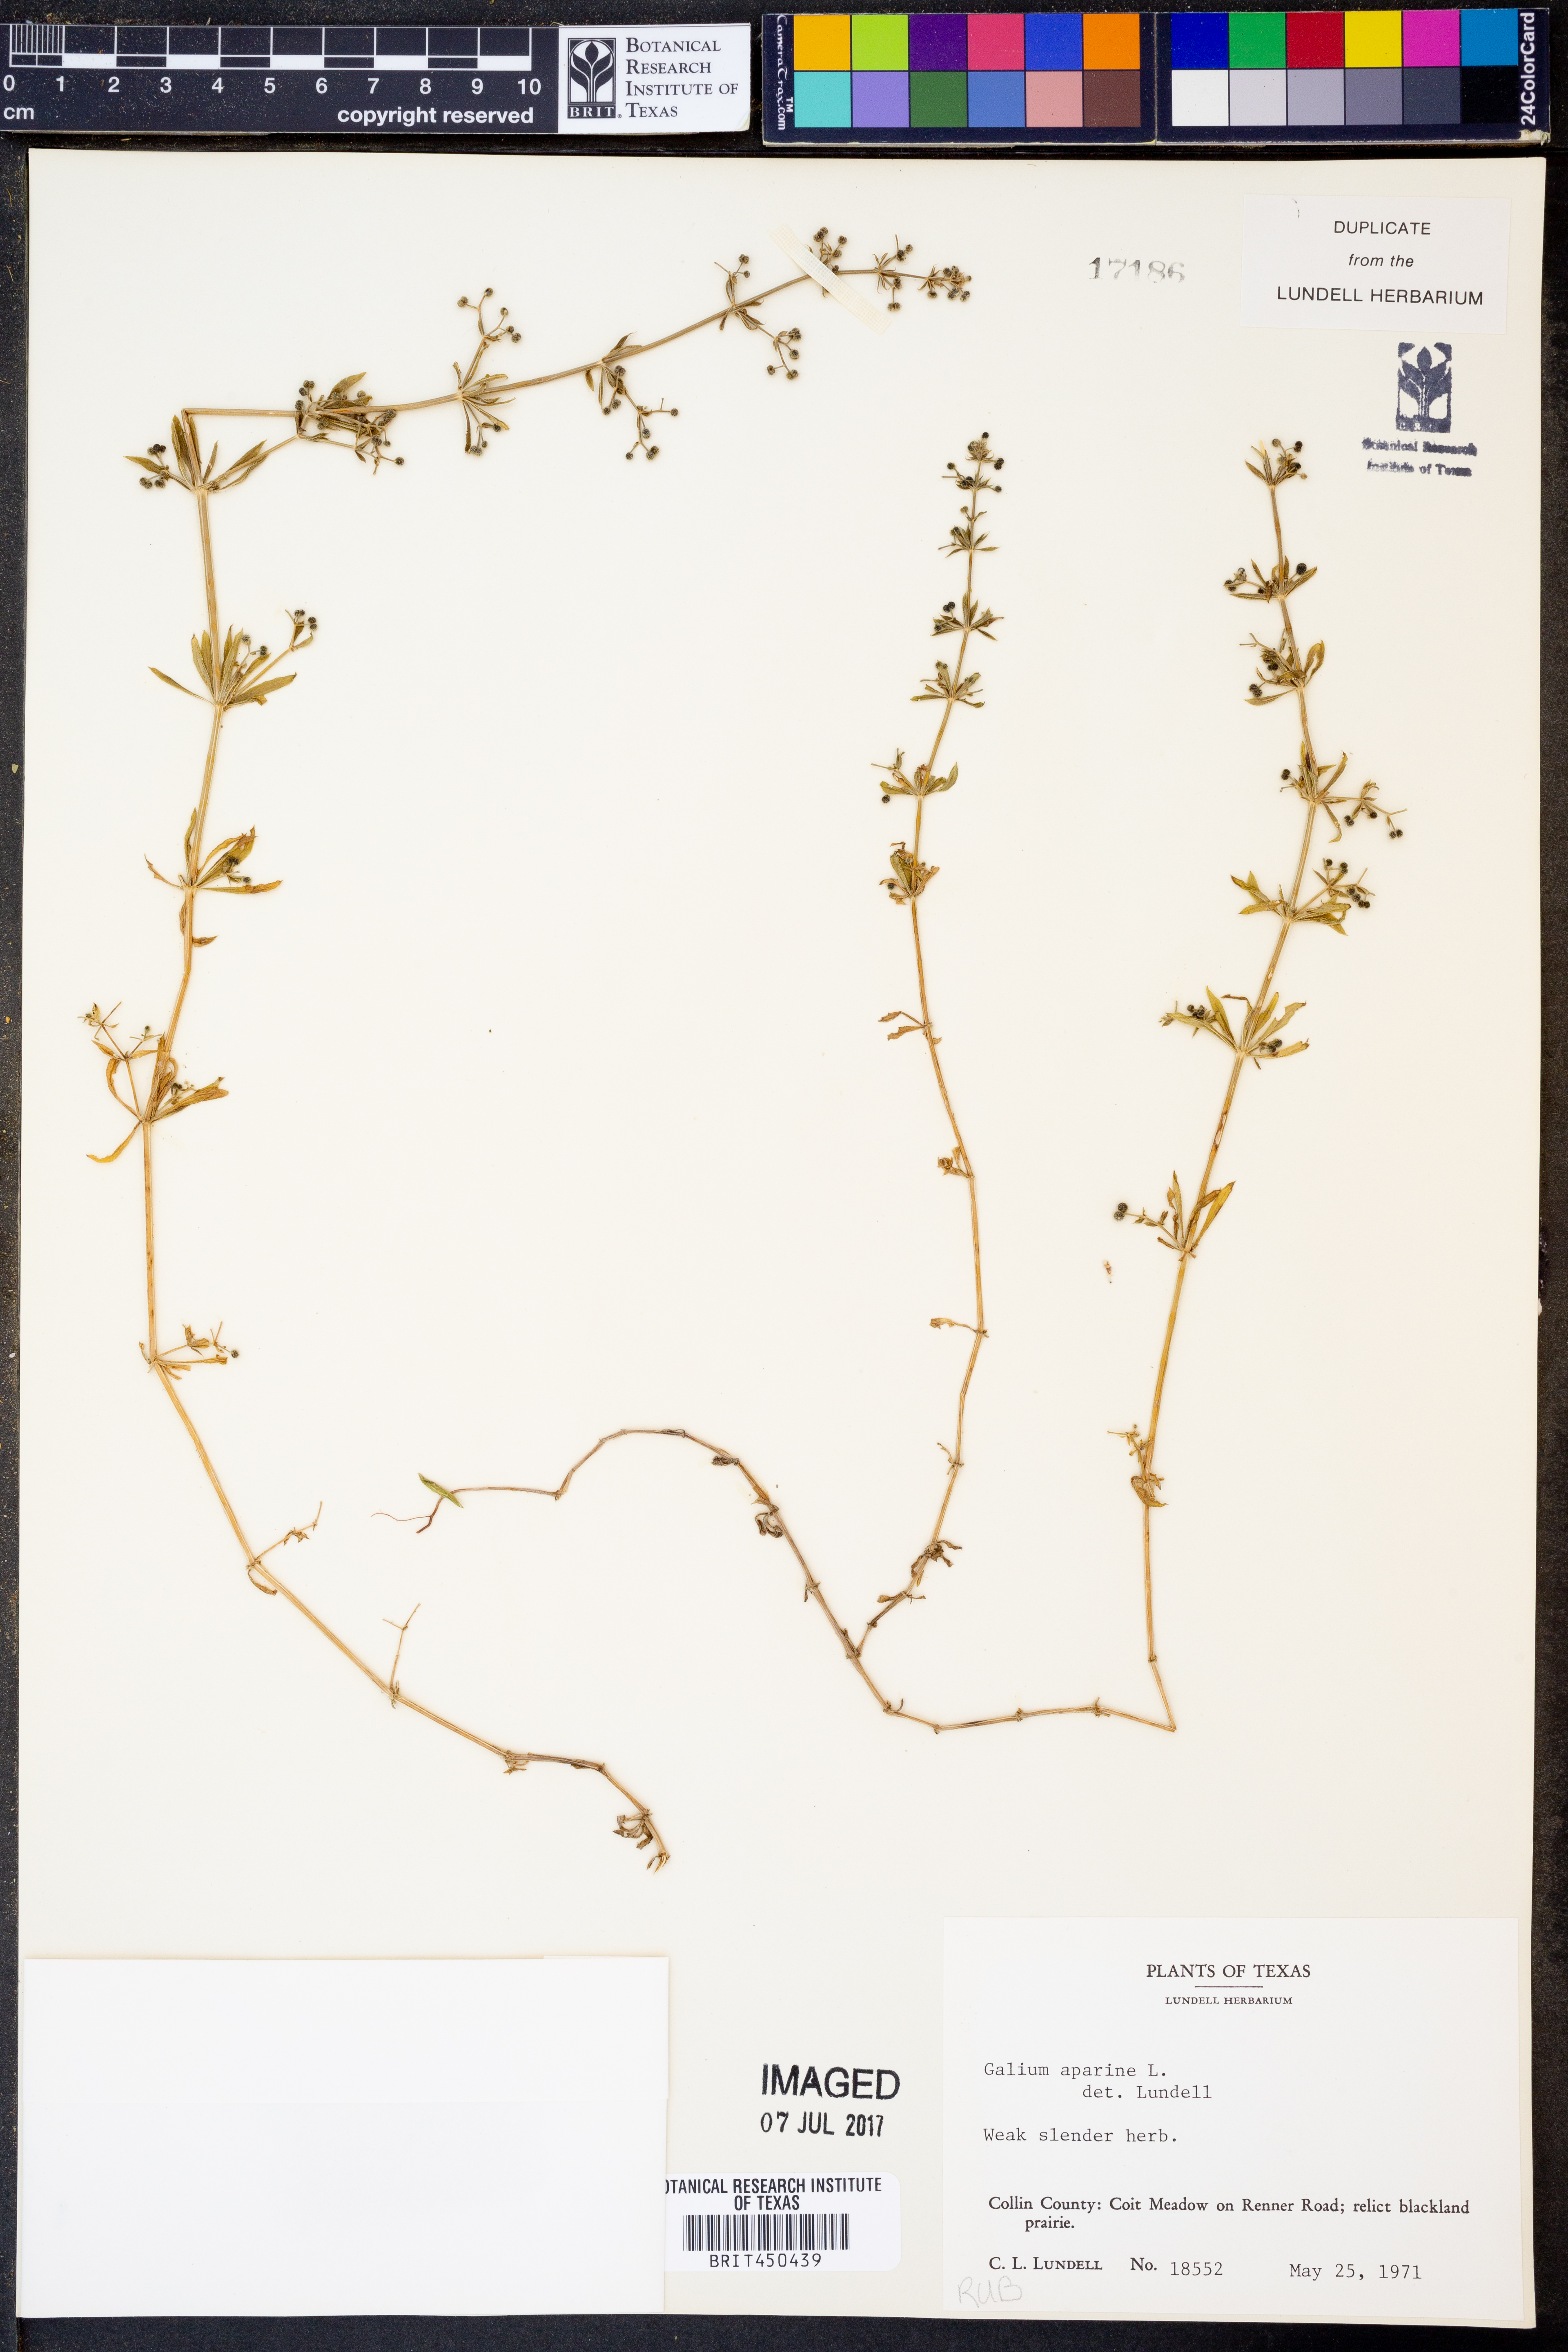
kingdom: Plantae
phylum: Tracheophyta
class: Magnoliopsida
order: Gentianales
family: Rubiaceae
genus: Galium
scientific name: Galium aparine
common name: Cleavers
